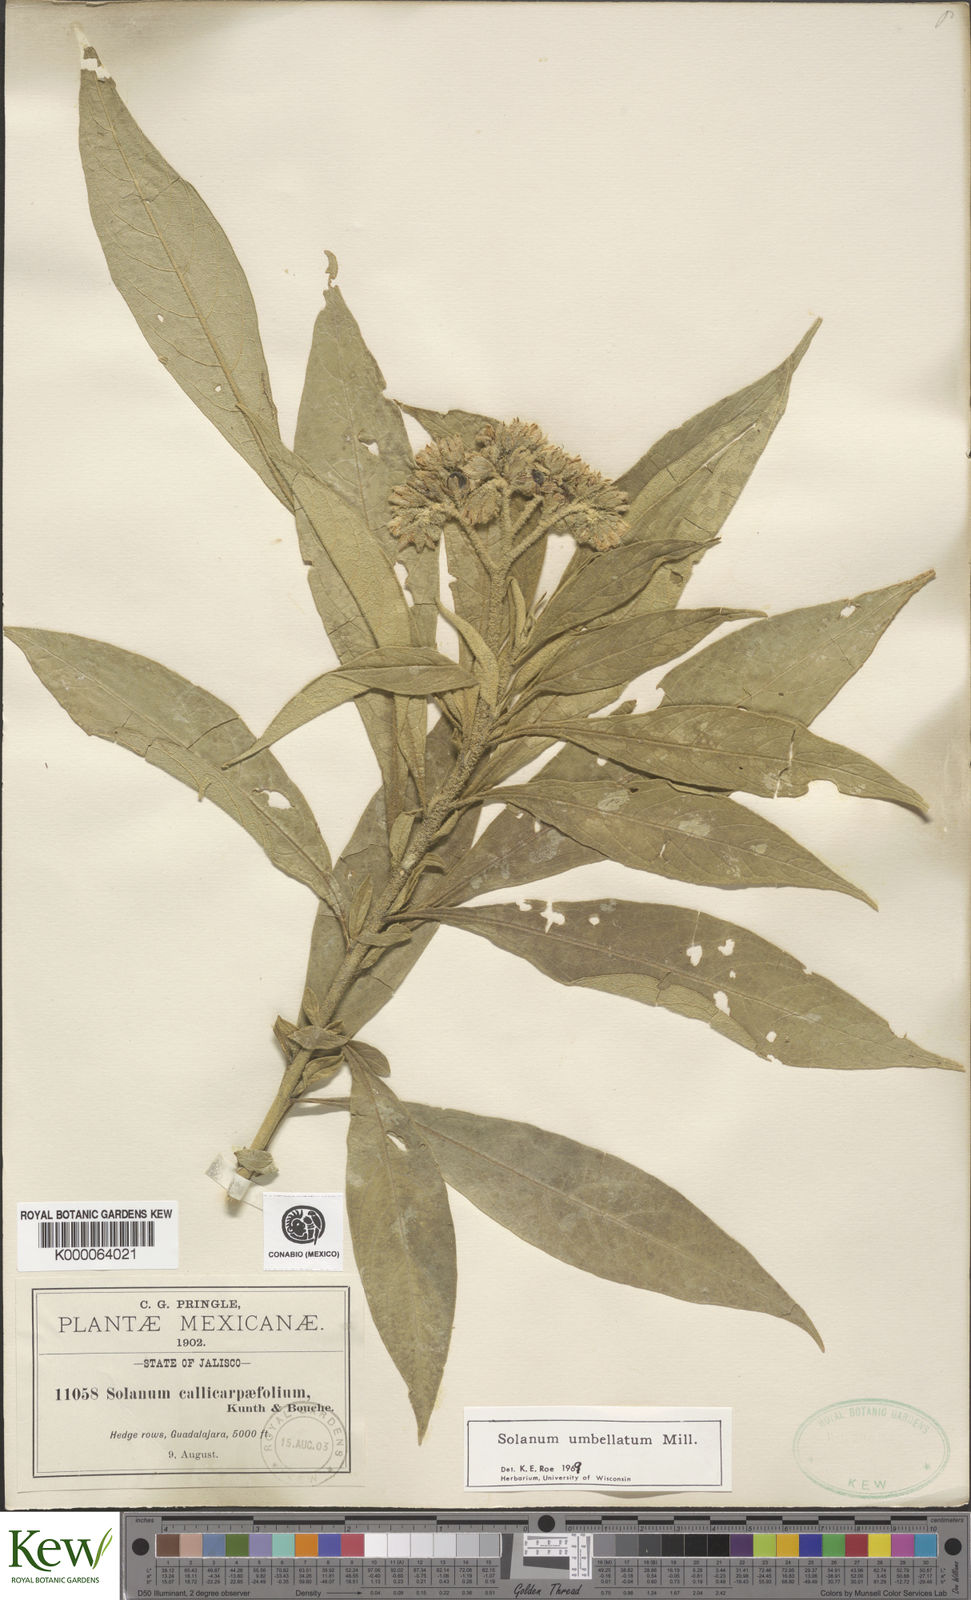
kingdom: Plantae
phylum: Tracheophyta
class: Magnoliopsida
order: Solanales
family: Solanaceae
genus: Solanum
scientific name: Solanum umbellatum
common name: Nightshade
